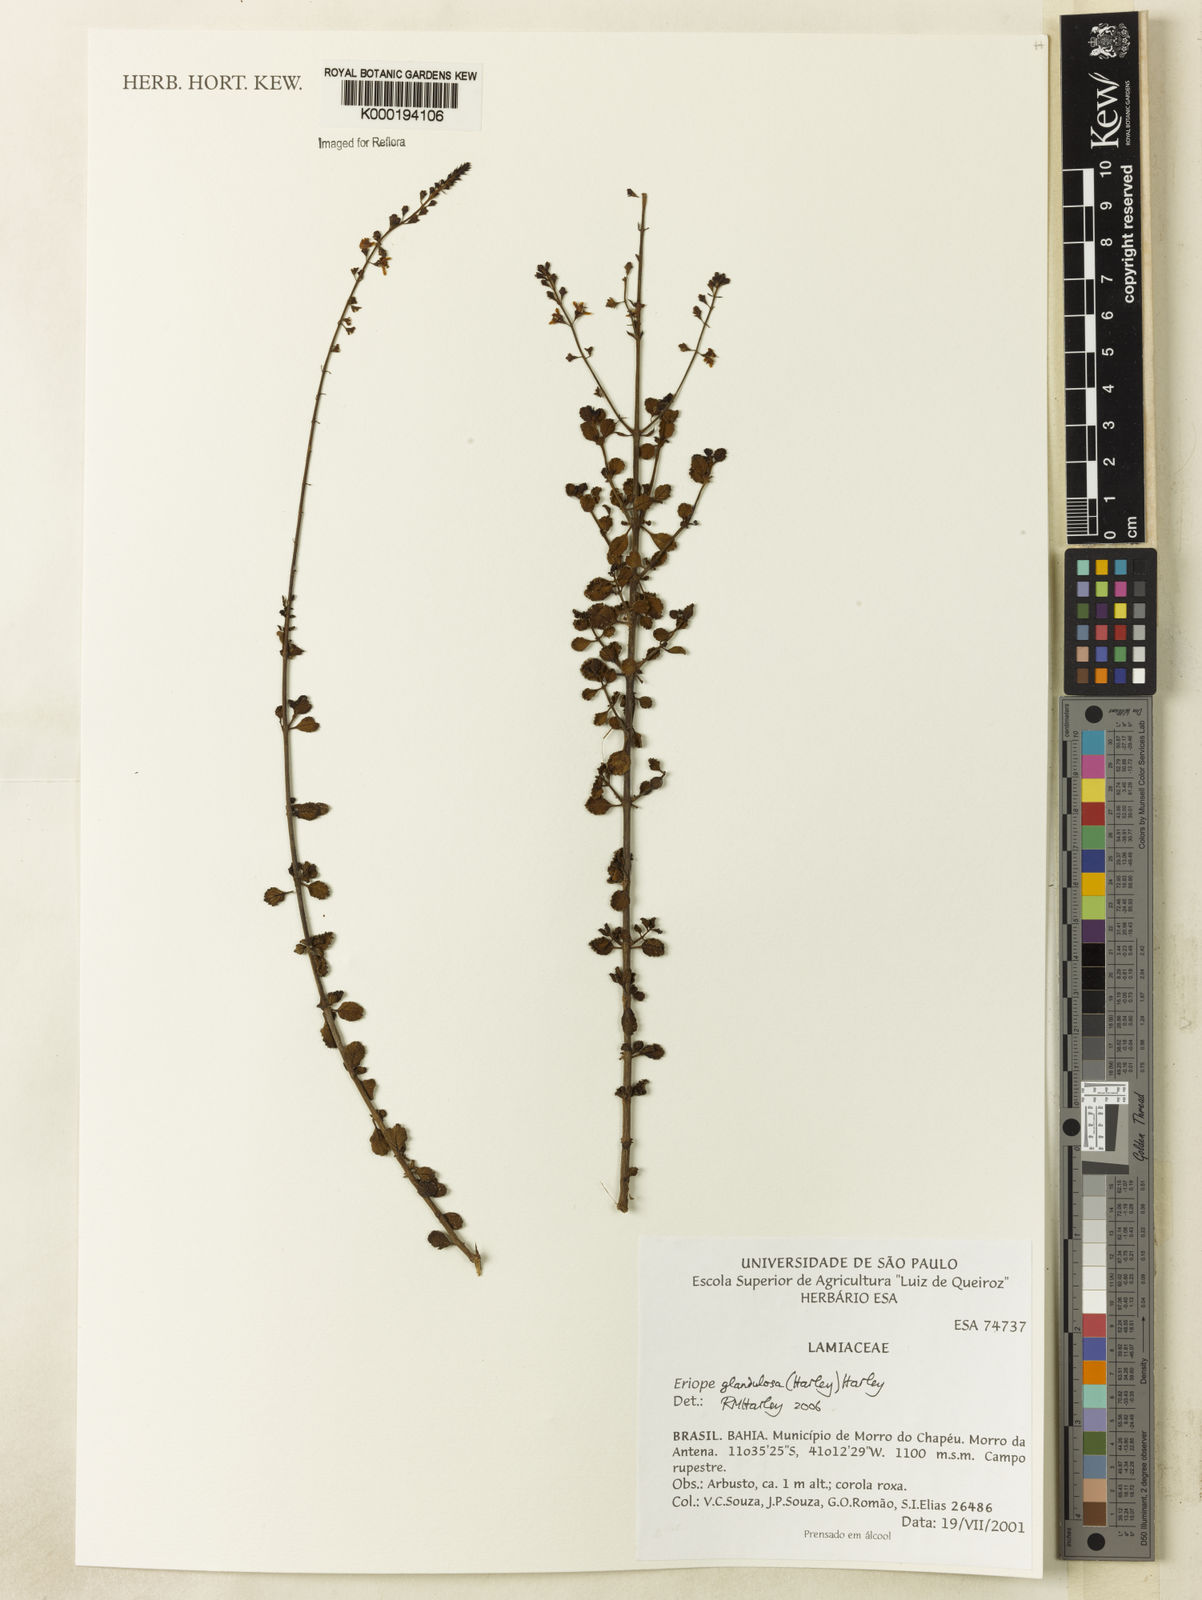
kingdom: Plantae
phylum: Tracheophyta
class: Magnoliopsida
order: Lamiales
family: Lamiaceae
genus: Eriope
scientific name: Eriope glandulosa
